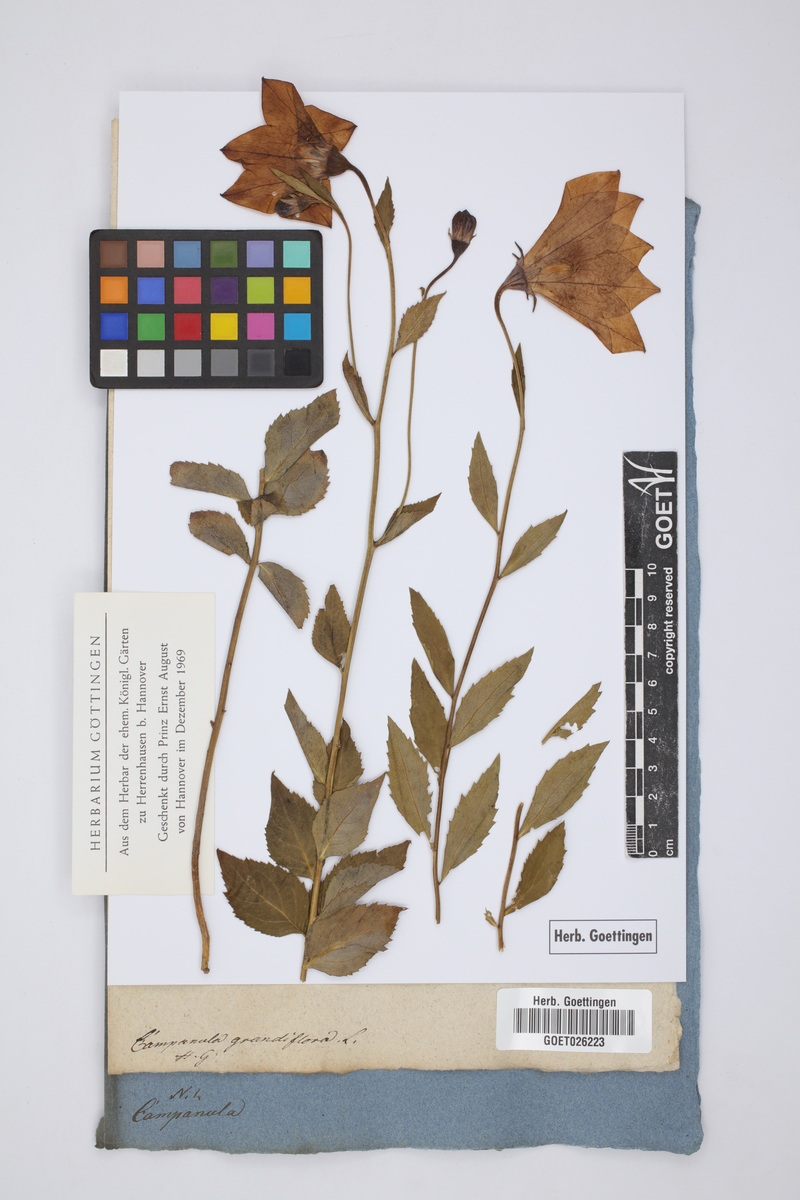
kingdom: Plantae
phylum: Tracheophyta
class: Magnoliopsida
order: Asterales
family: Campanulaceae
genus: Platycodon
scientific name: Platycodon grandiflorus
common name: Balloon-flower
